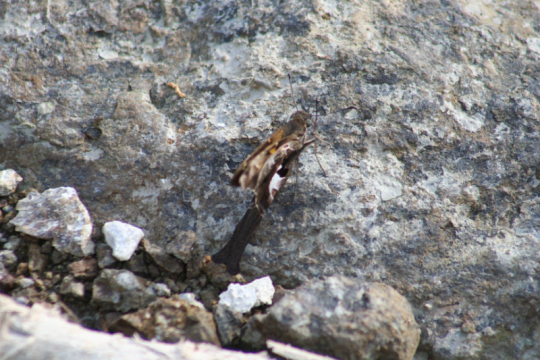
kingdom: Animalia
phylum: Arthropoda
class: Insecta
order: Lepidoptera
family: Hesperiidae
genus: Chioides
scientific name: Chioides zilpa
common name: Zilpa Longtail
